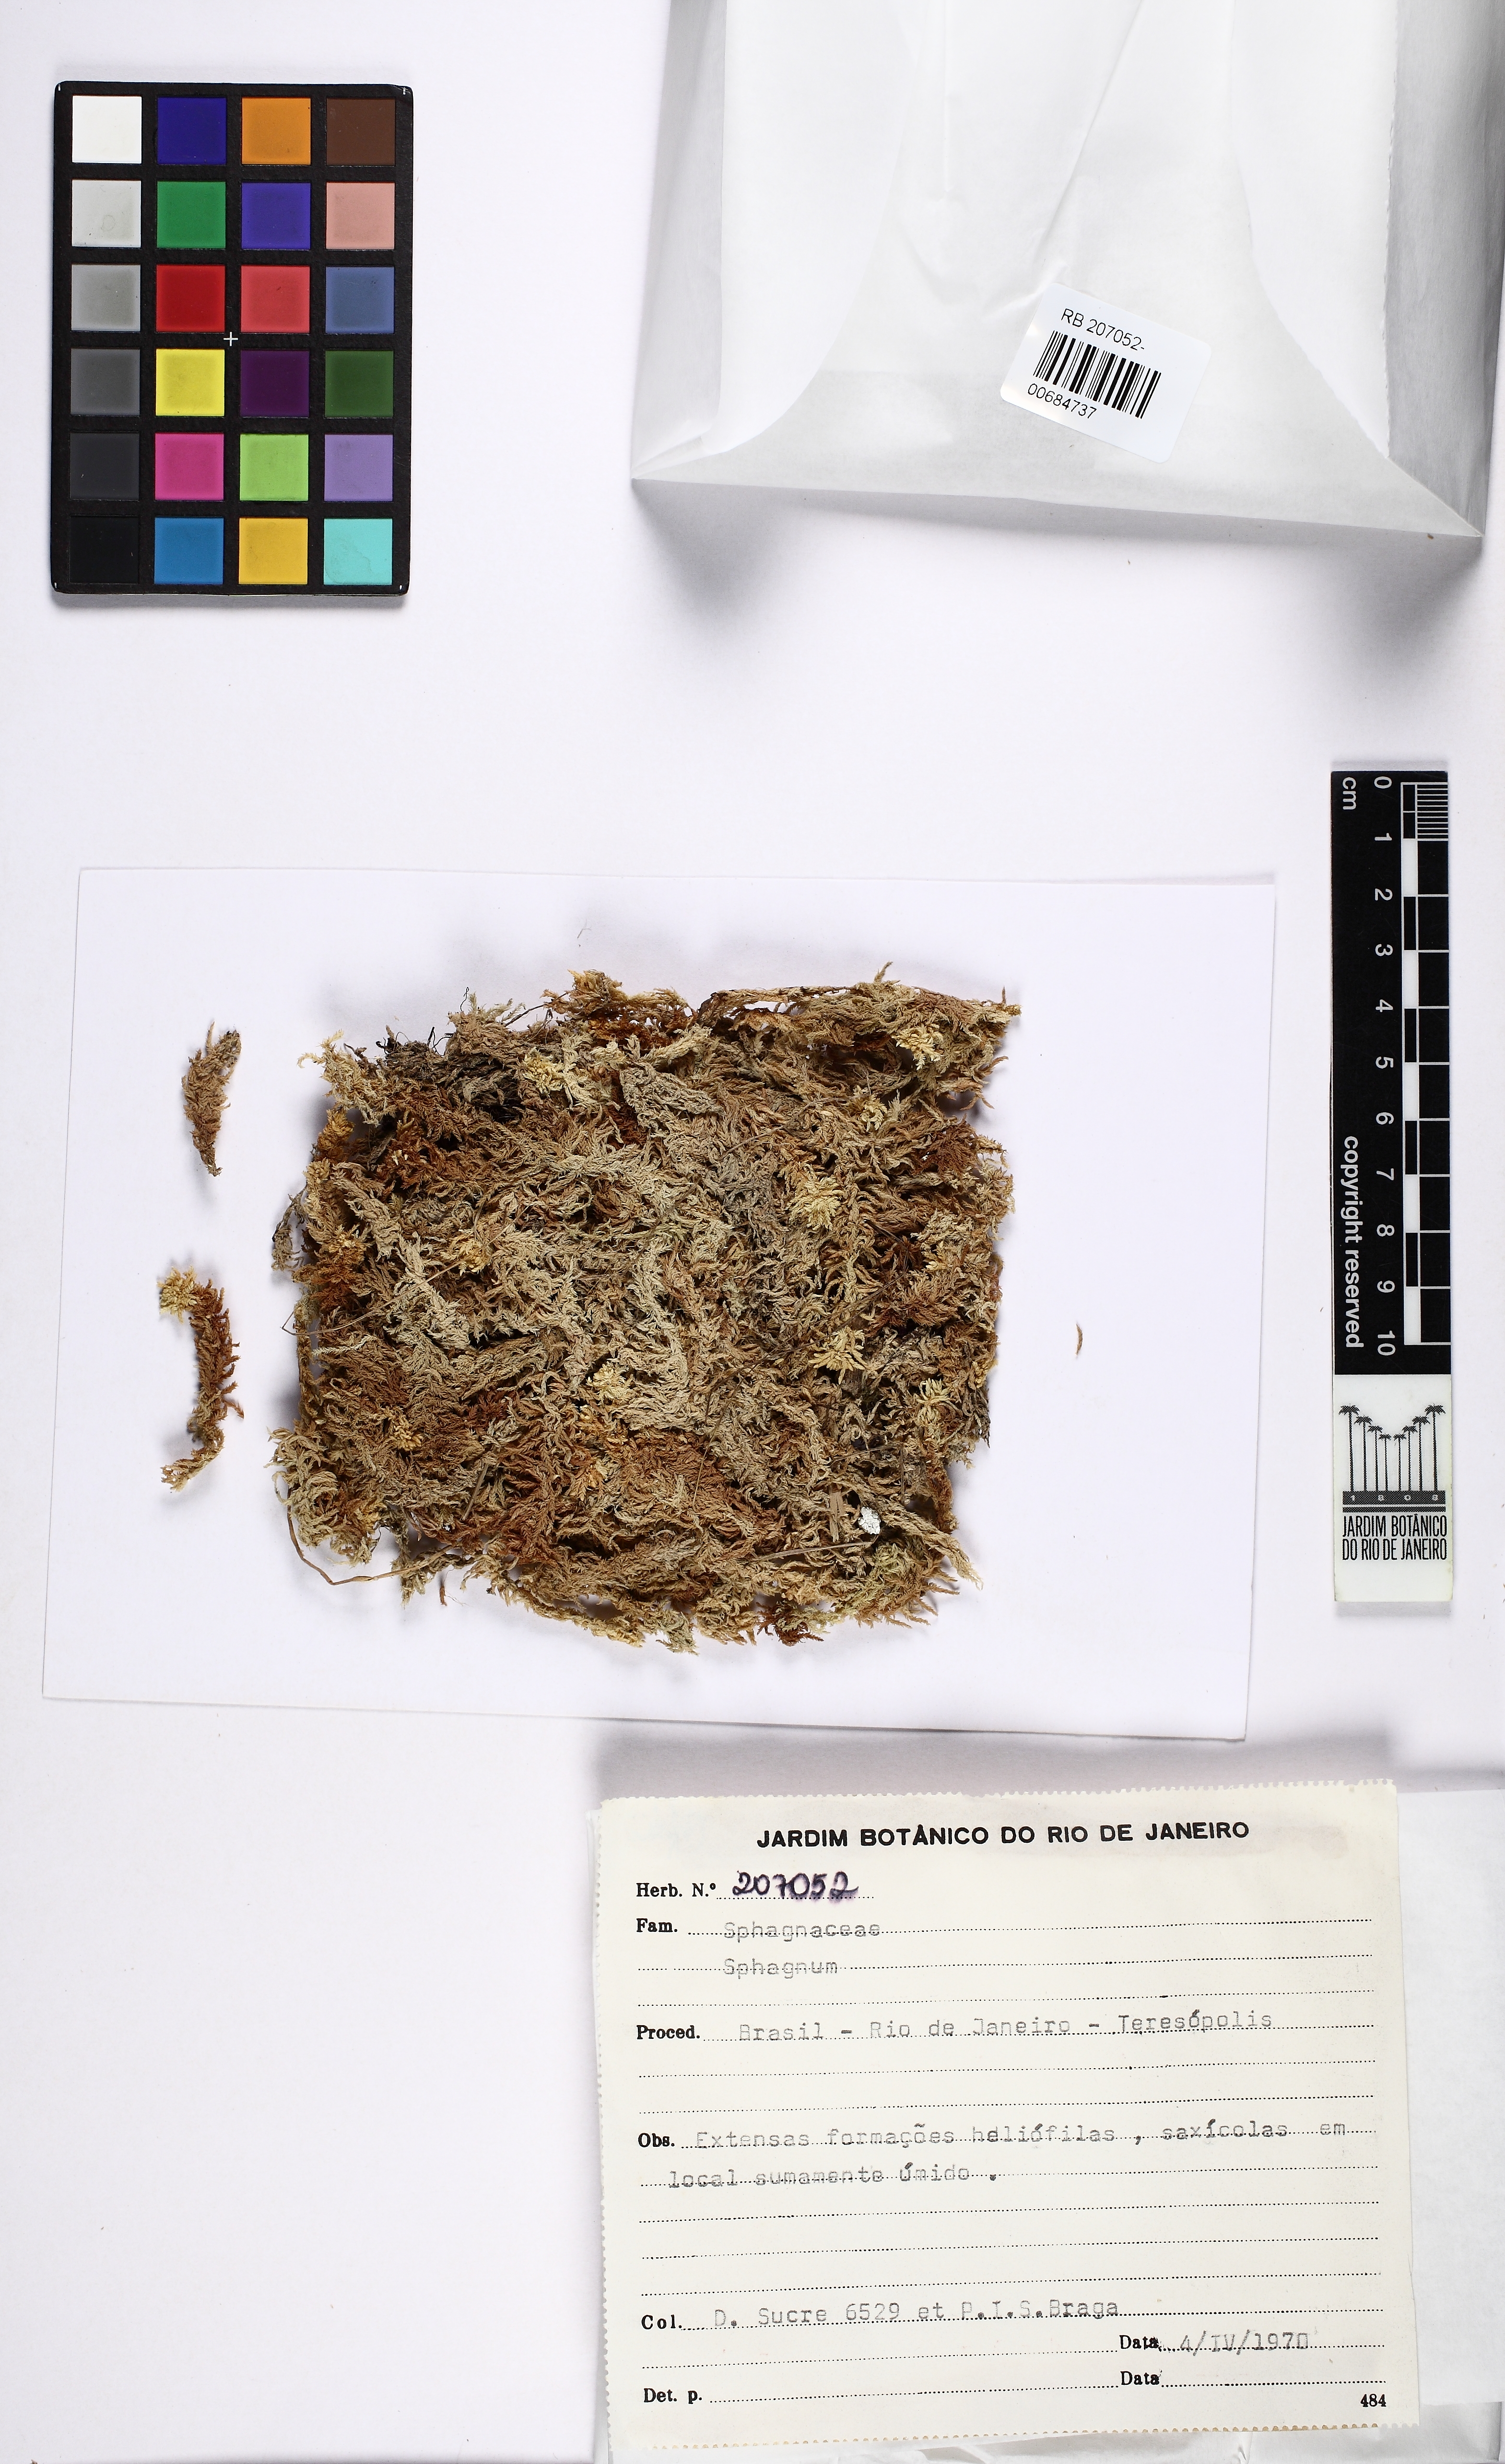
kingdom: Plantae
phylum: Bryophyta
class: Sphagnopsida
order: Sphagnales
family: Sphagnaceae
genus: Sphagnum
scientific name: Sphagnum pseudoramulinum
